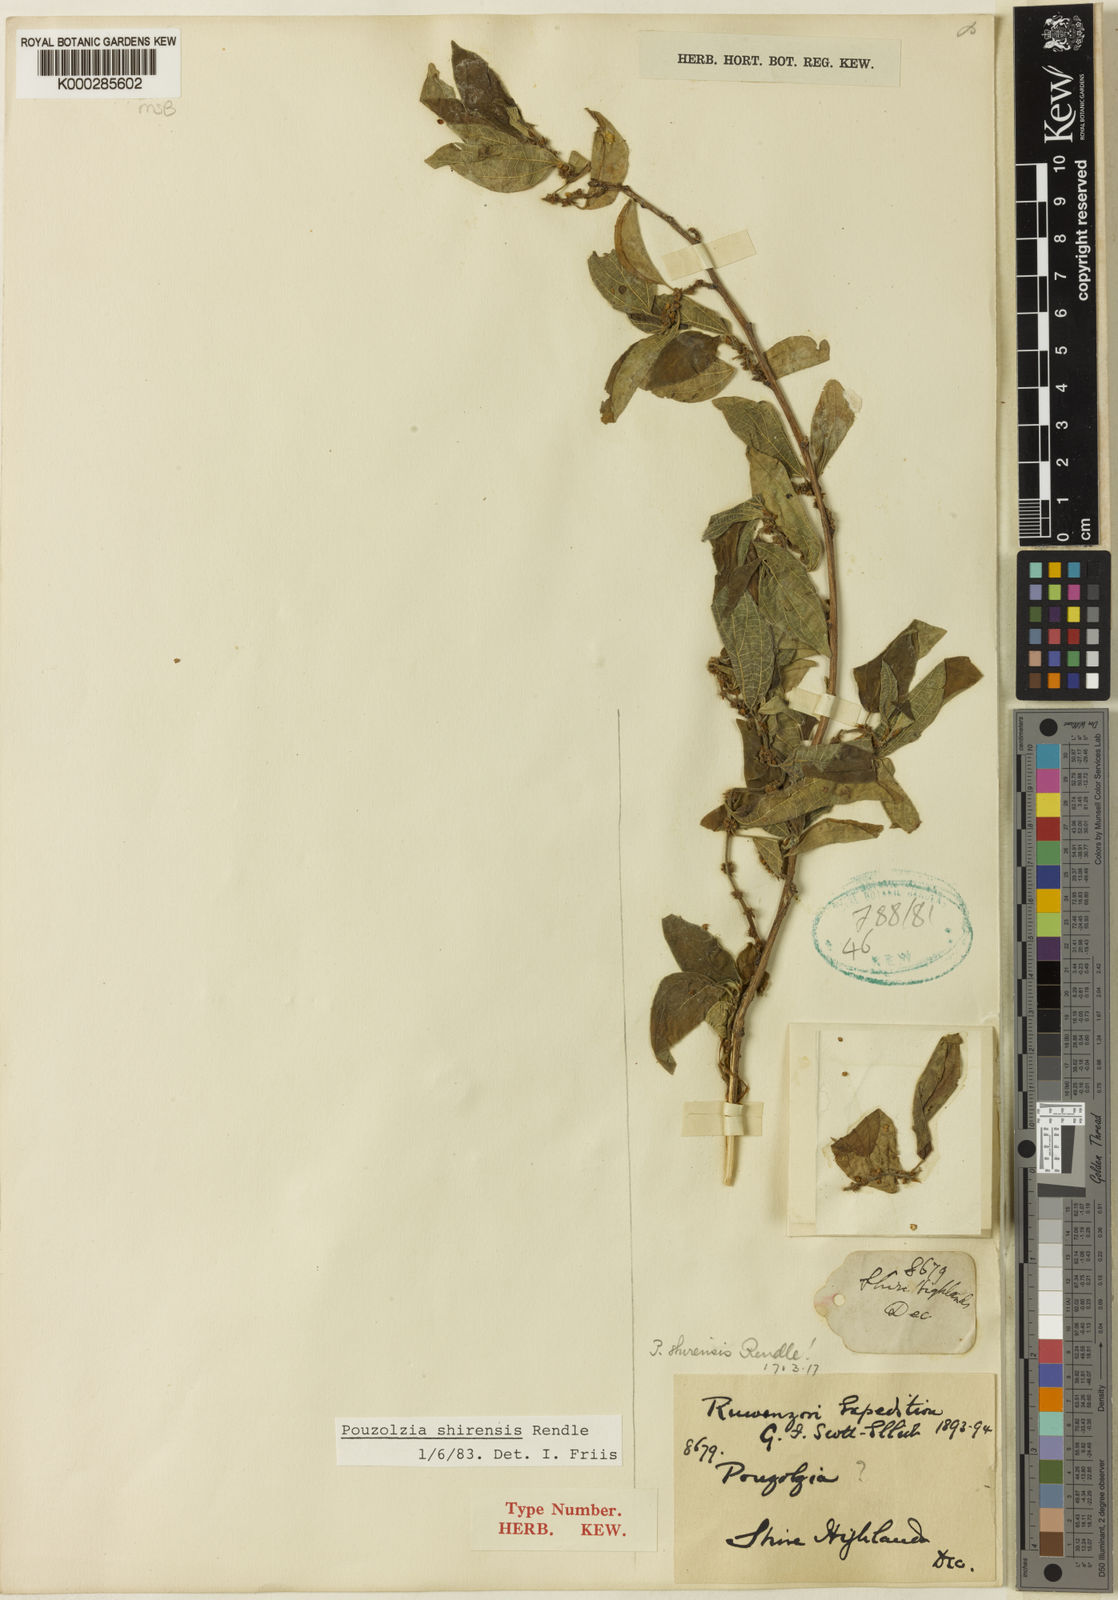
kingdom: Plantae
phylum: Tracheophyta
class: Magnoliopsida
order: Rosales
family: Urticaceae
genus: Pouzolzia
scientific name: Pouzolzia mixta
